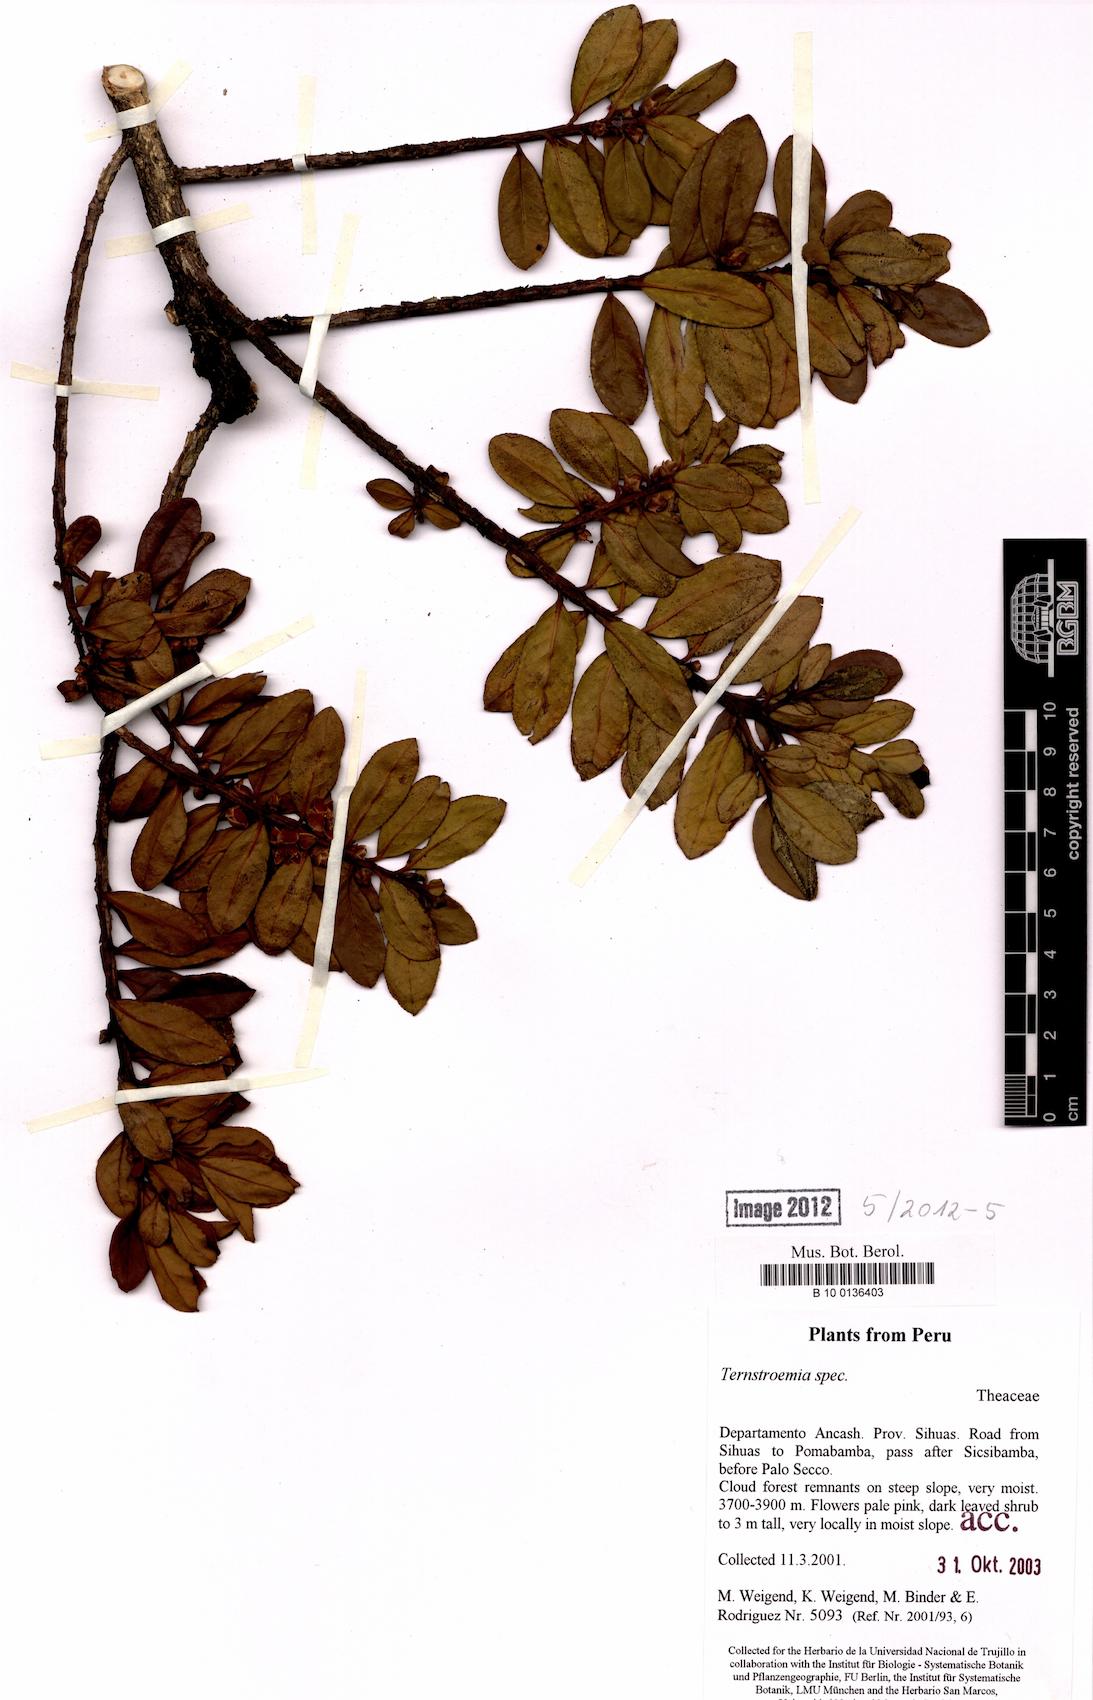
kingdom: Plantae
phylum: Tracheophyta
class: Magnoliopsida
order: Ericales
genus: Ternstroemia
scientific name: Ternstroemia
